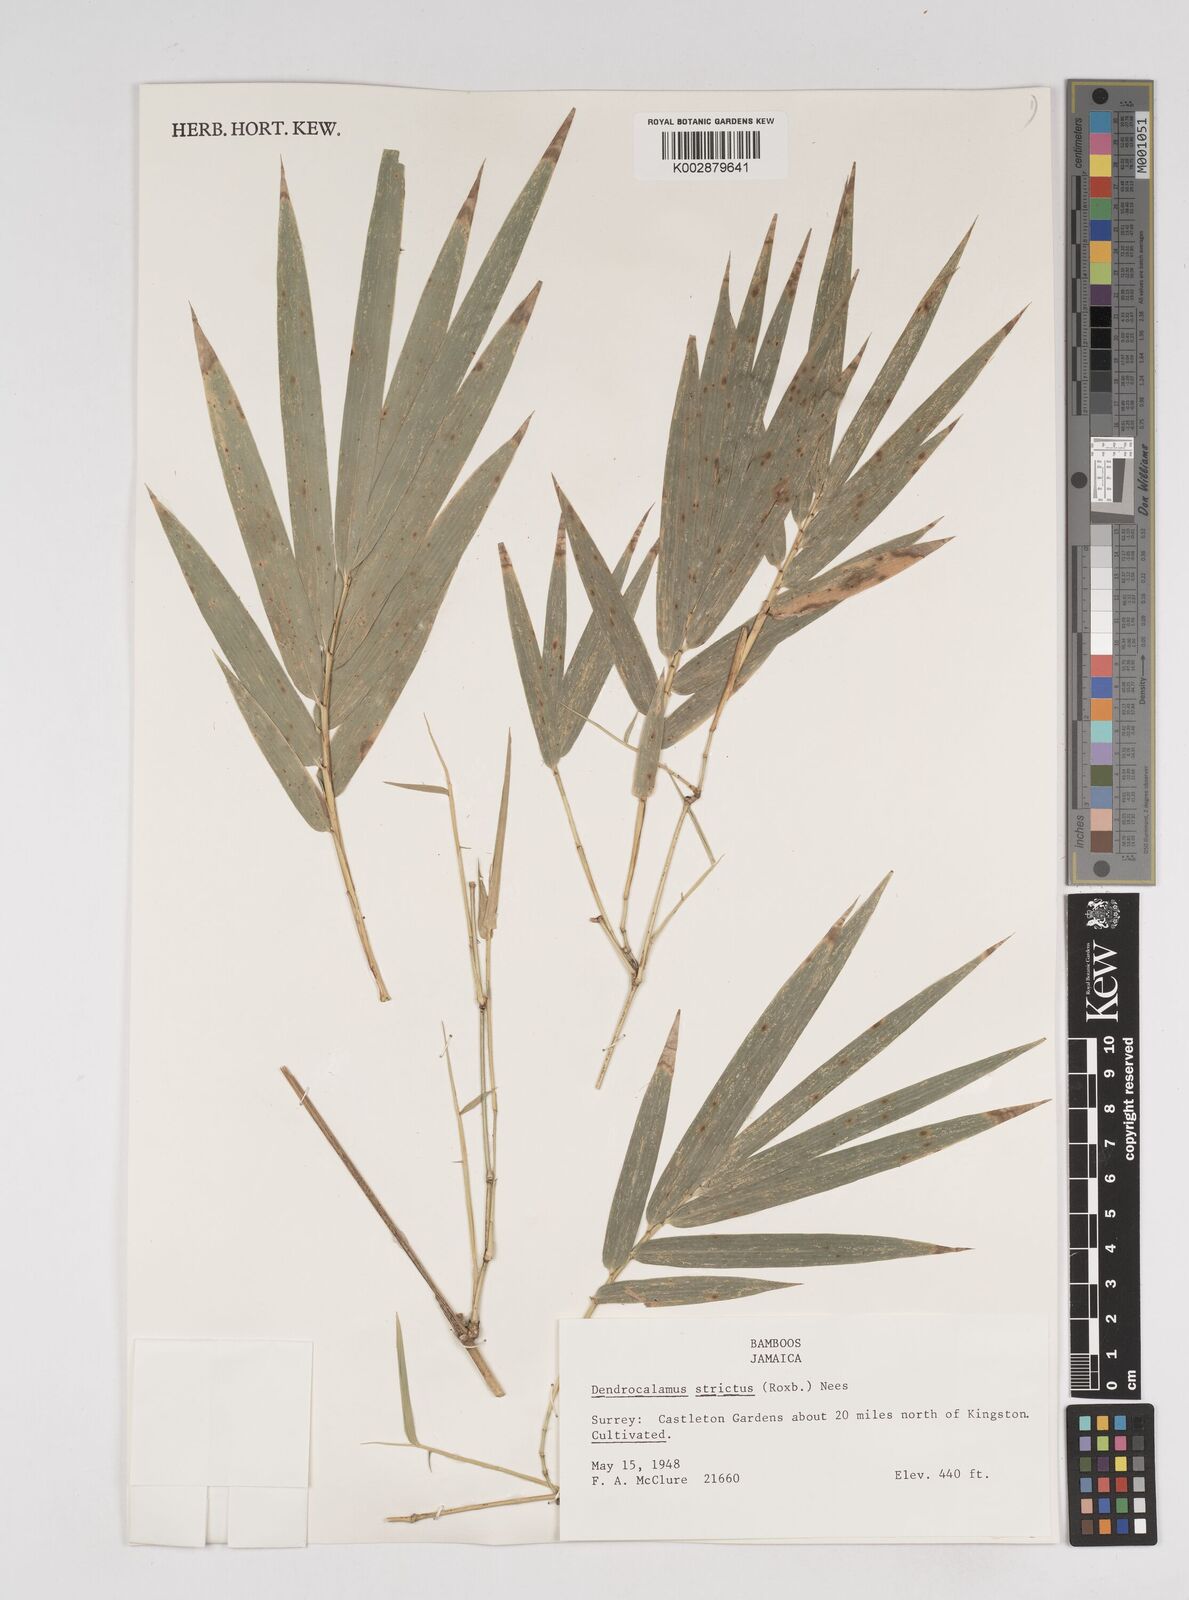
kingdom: Plantae
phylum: Tracheophyta
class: Liliopsida
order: Poales
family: Poaceae
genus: Dendrocalamus
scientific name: Dendrocalamus strictus
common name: Male bamboo
